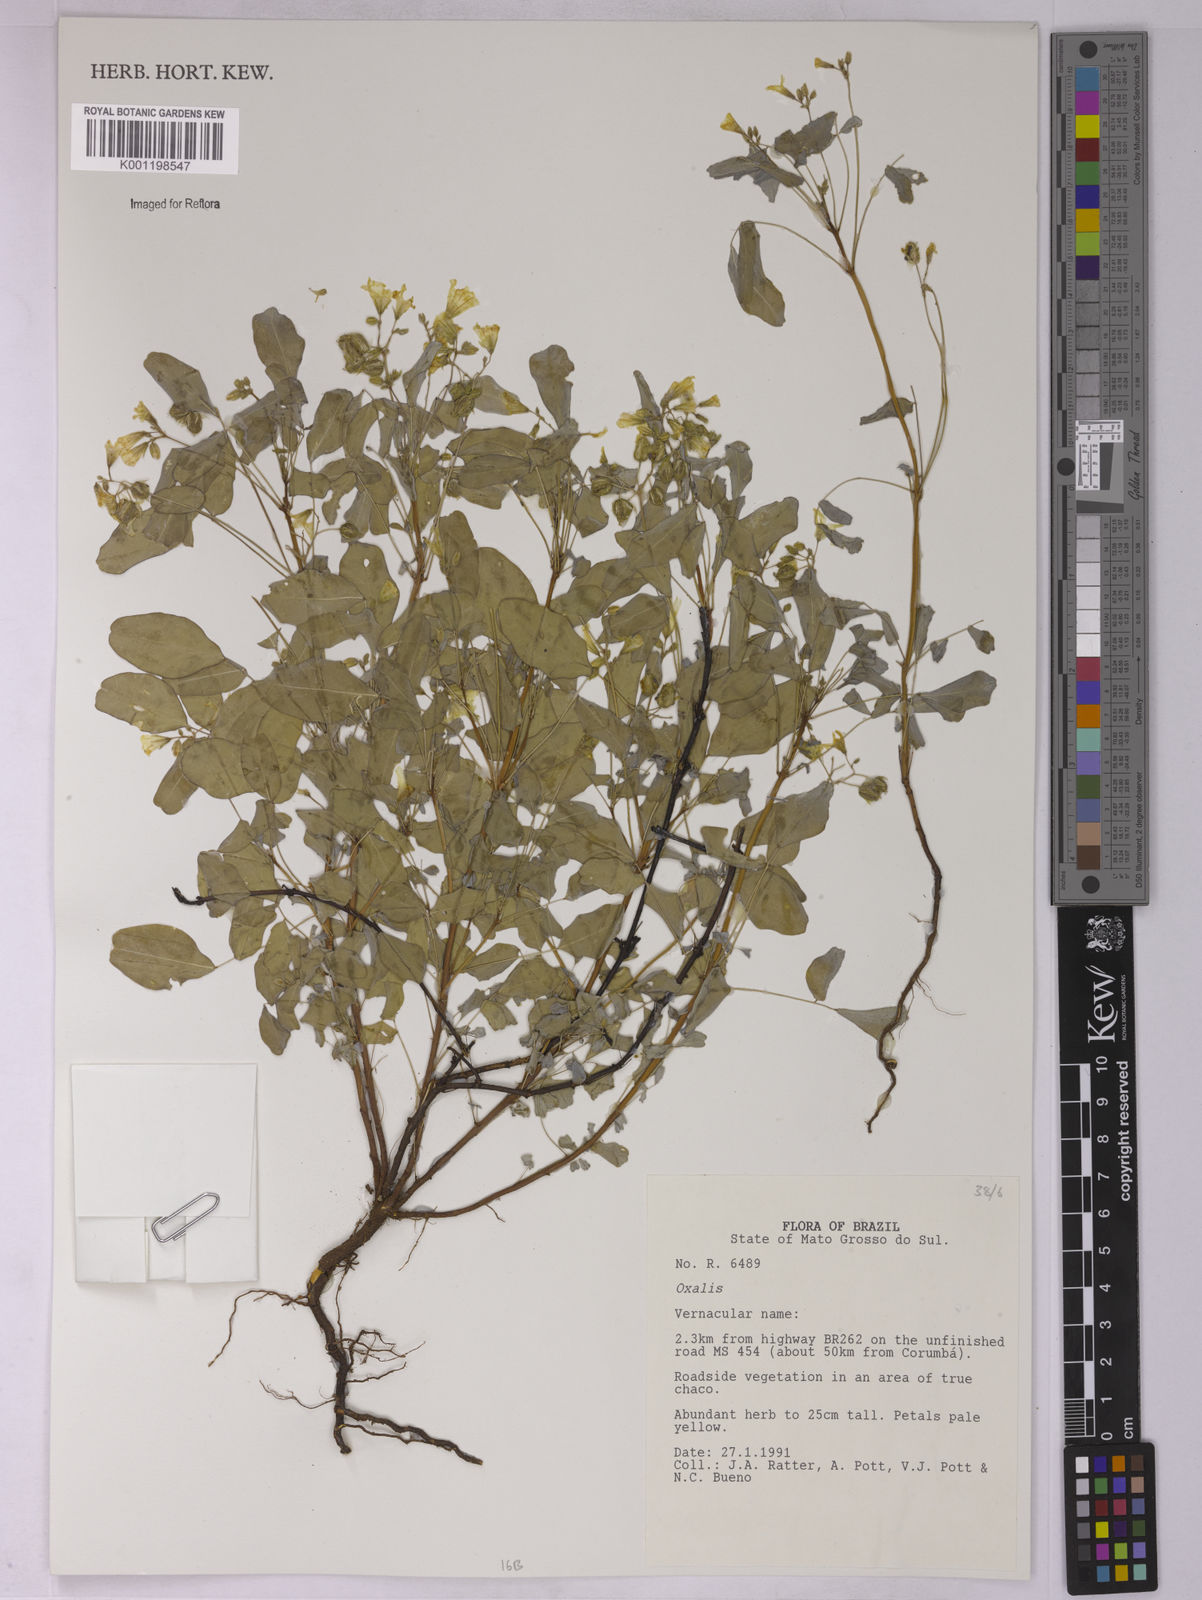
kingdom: Plantae
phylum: Tracheophyta
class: Magnoliopsida
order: Oxalidales
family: Oxalidaceae
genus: Oxalis
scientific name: Oxalis
